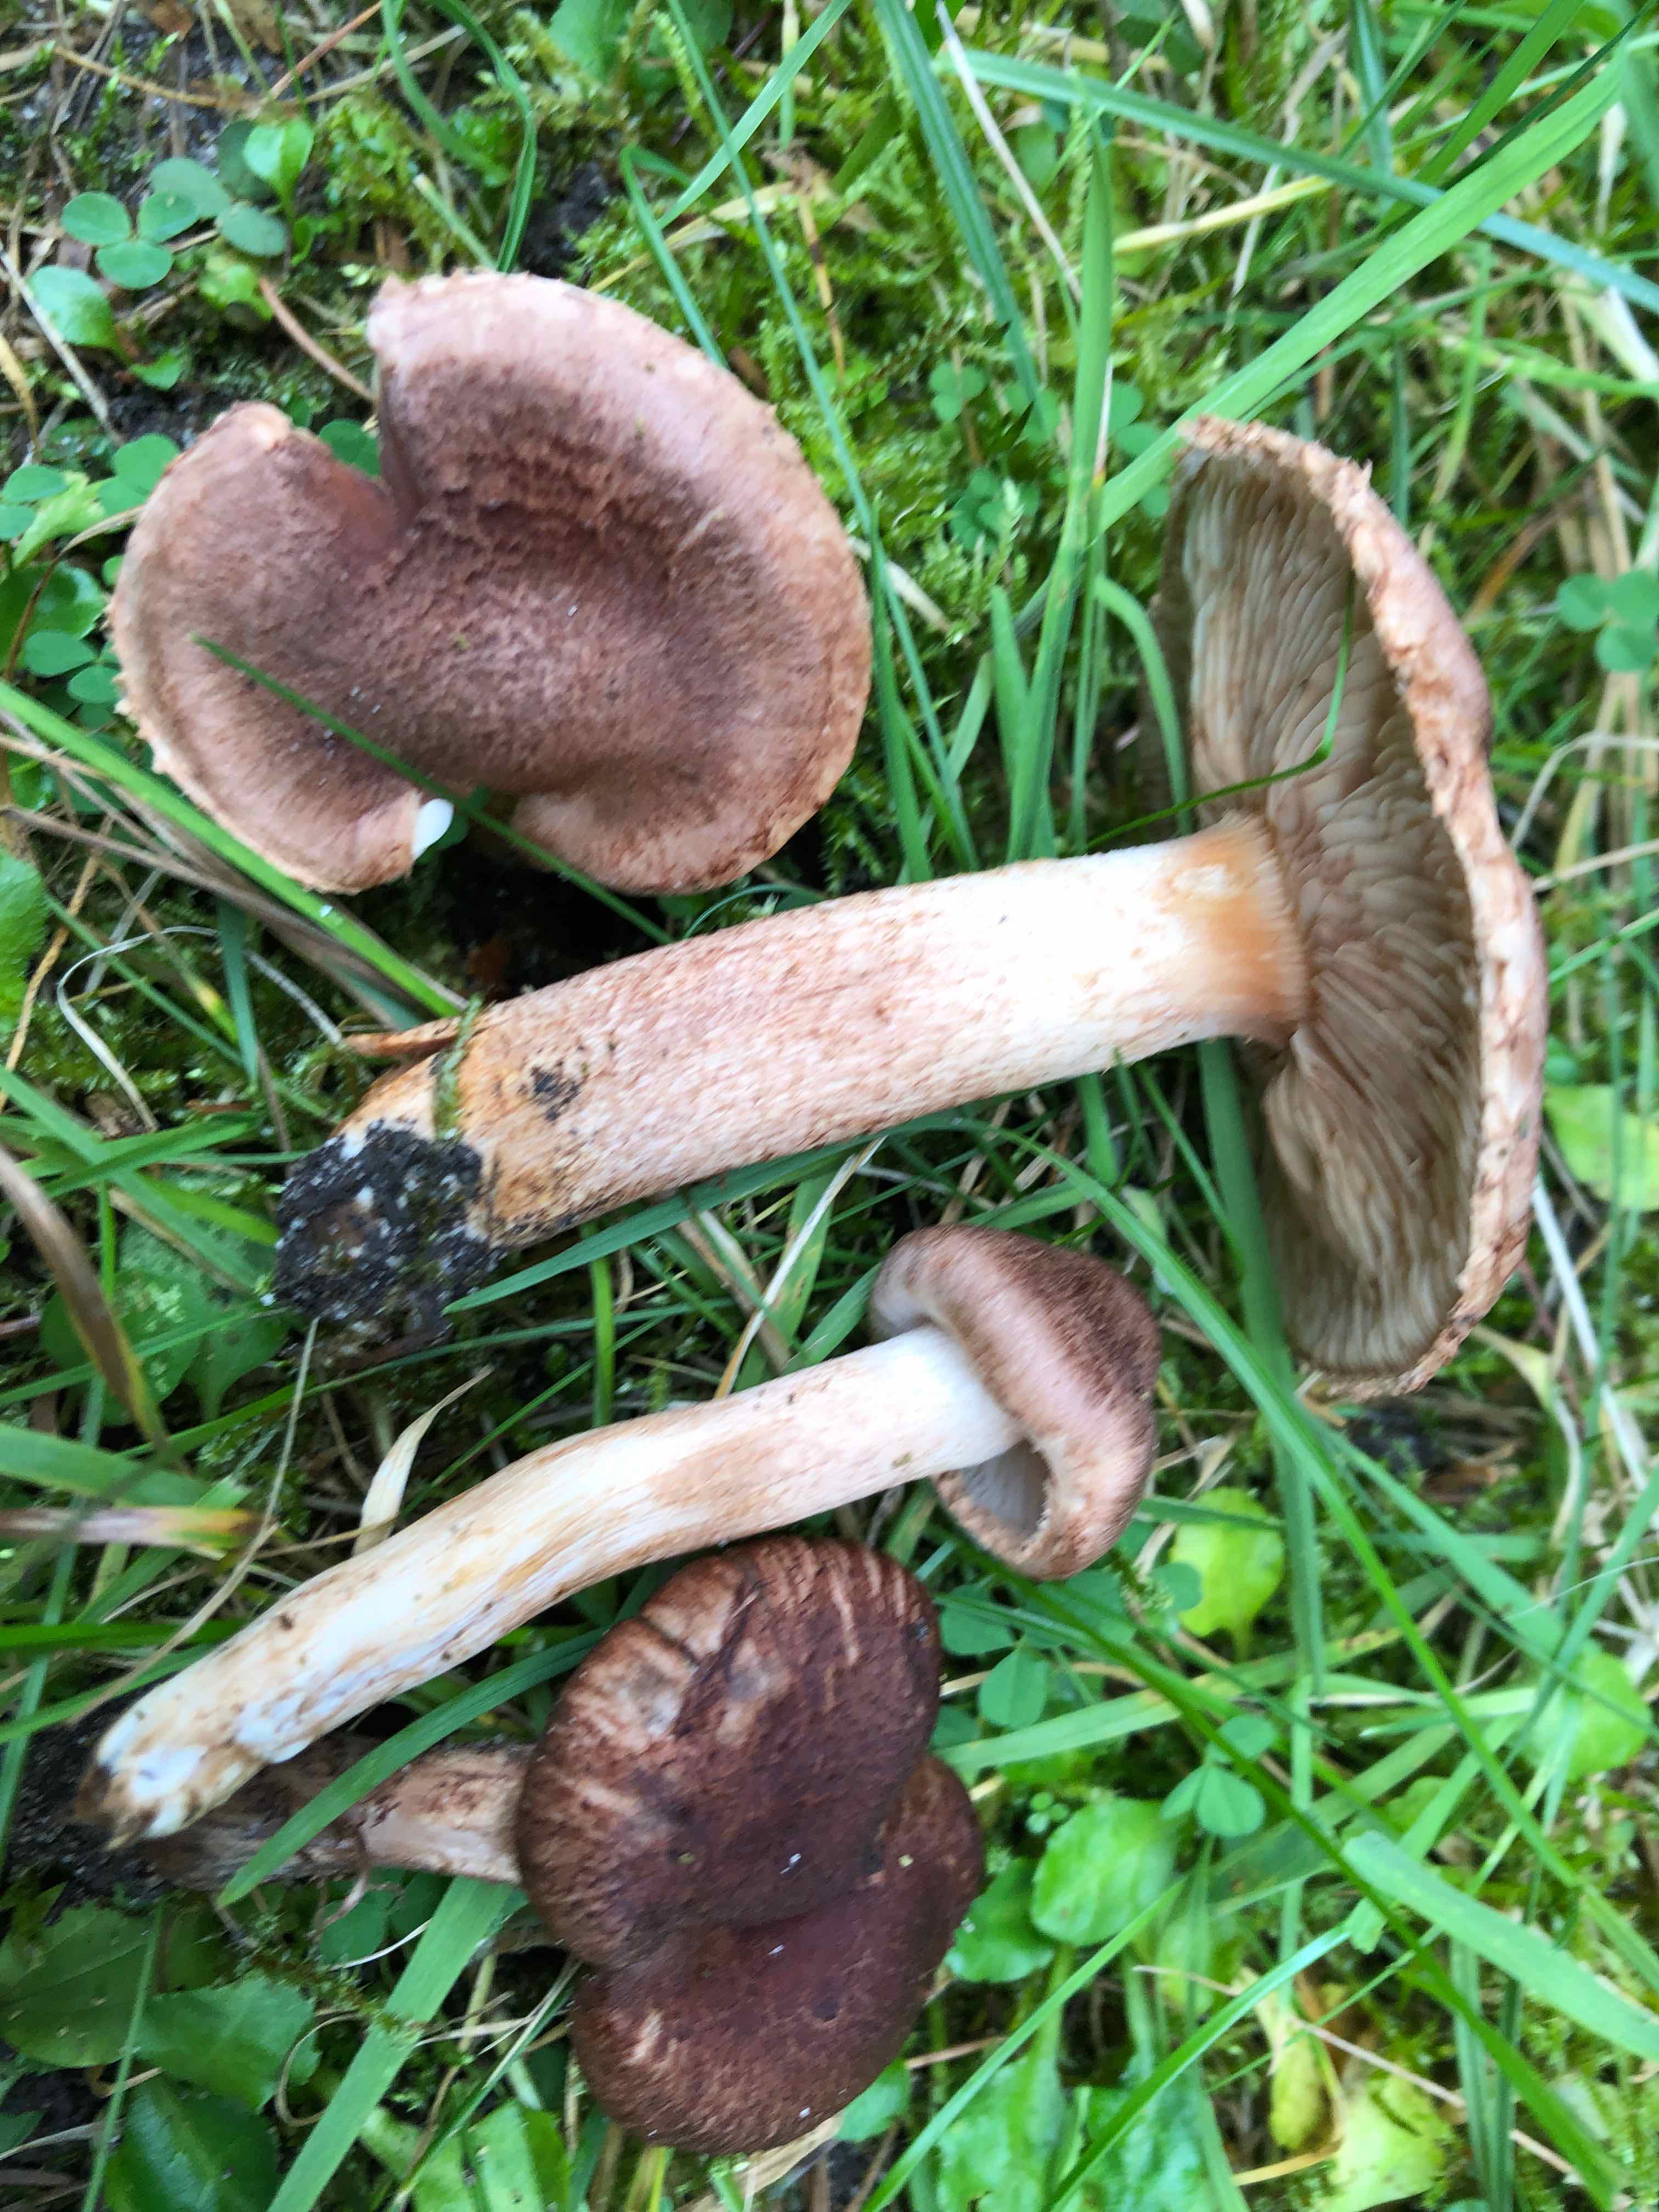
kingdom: Fungi
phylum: Basidiomycota
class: Agaricomycetes
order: Agaricales
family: Tricholomataceae
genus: Tricholoma
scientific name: Tricholoma vaccinum
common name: ko-ridderhat
